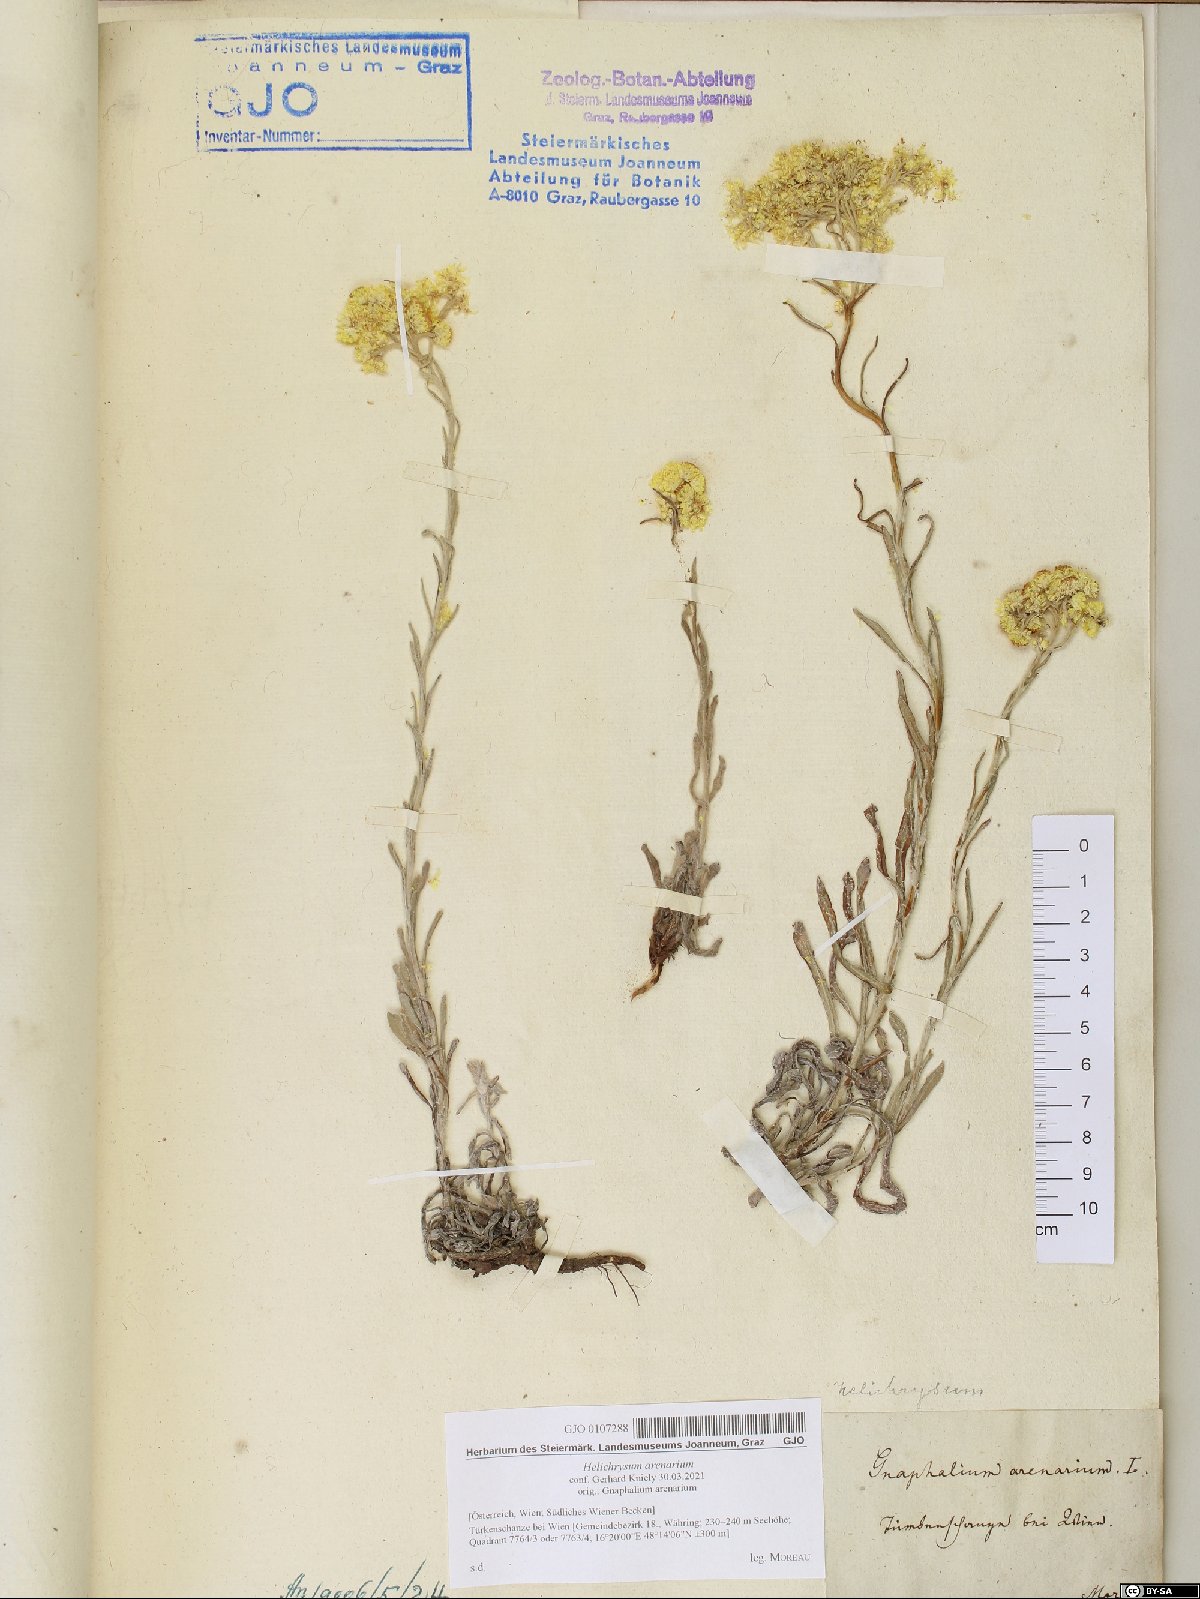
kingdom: Plantae
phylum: Tracheophyta
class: Magnoliopsida
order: Asterales
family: Asteraceae
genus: Helichrysum
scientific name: Helichrysum arenarium
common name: Strawflower
